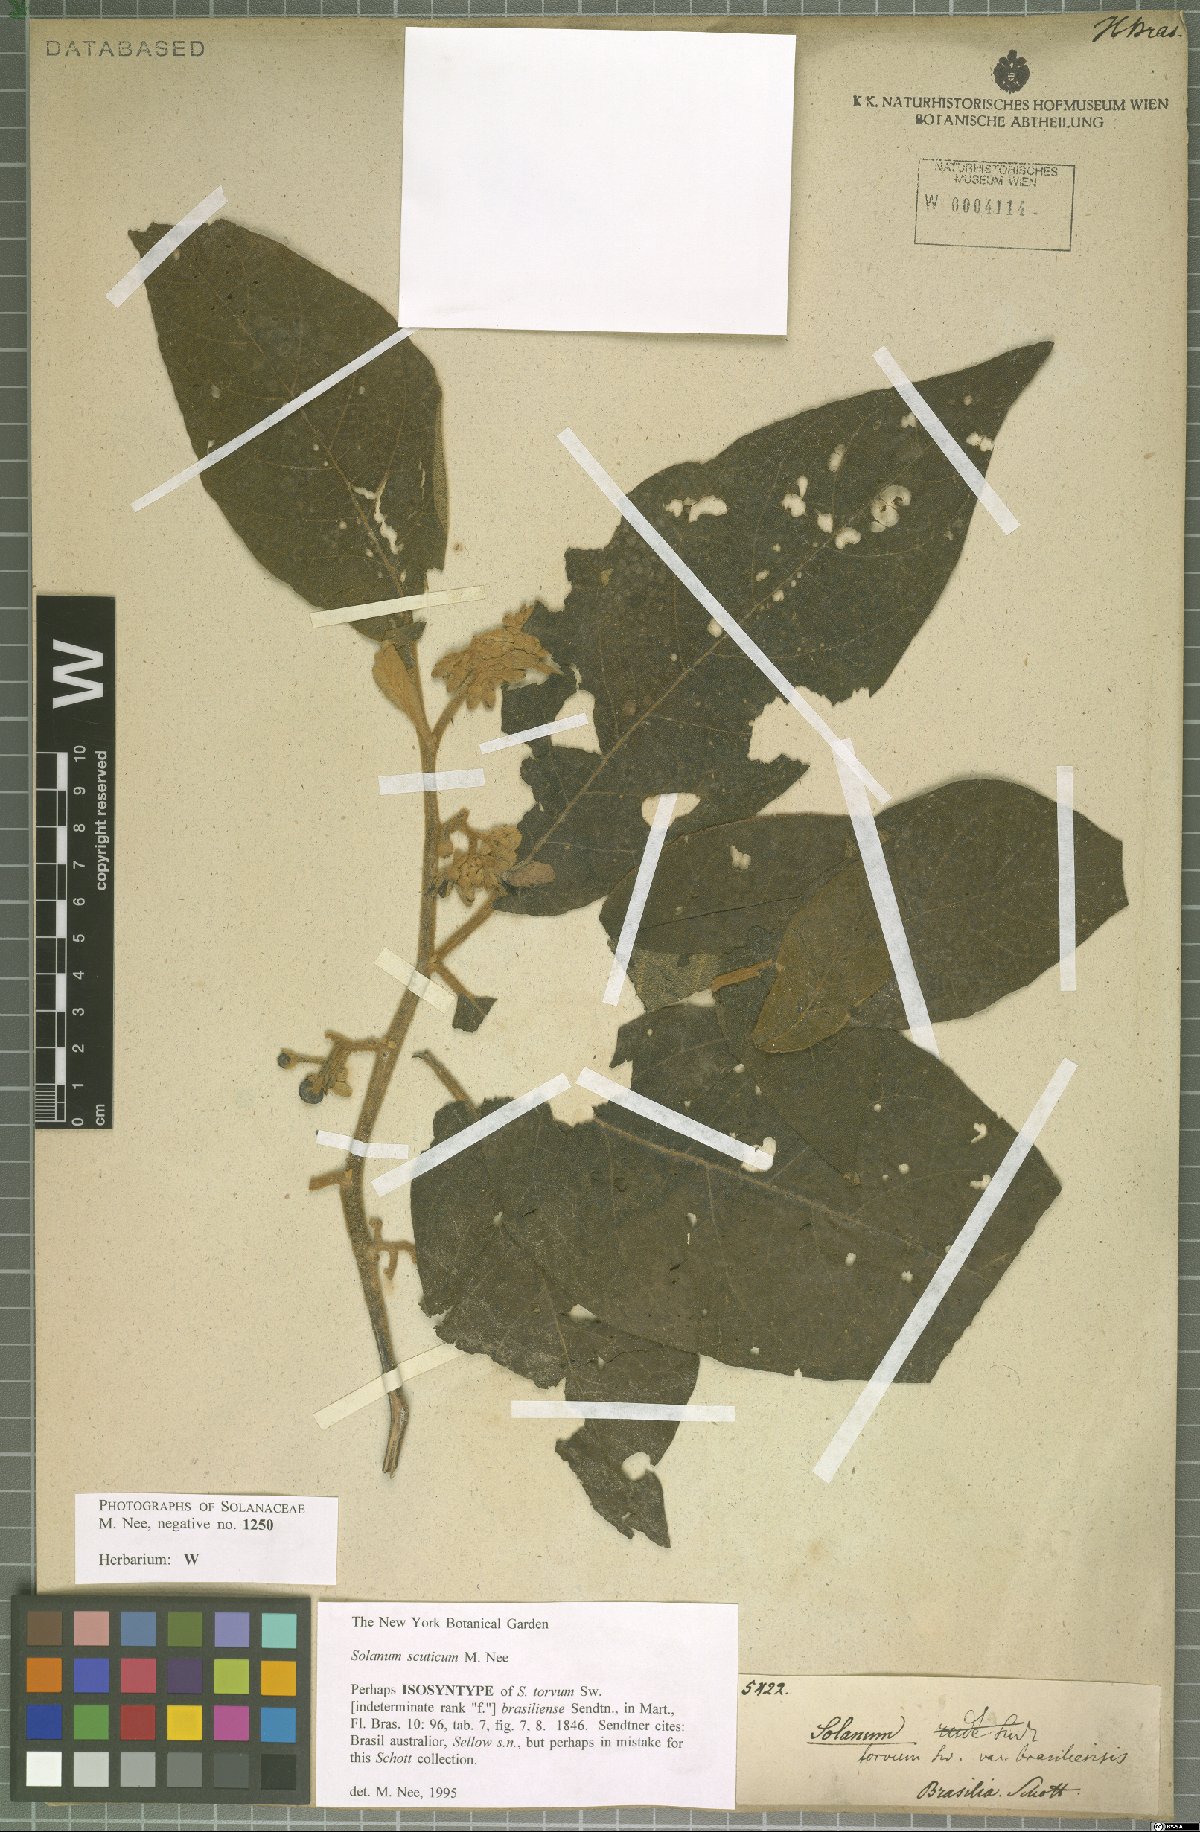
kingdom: Plantae
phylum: Tracheophyta
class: Magnoliopsida
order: Solanales
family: Solanaceae
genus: Solanum
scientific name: Solanum scuticum
